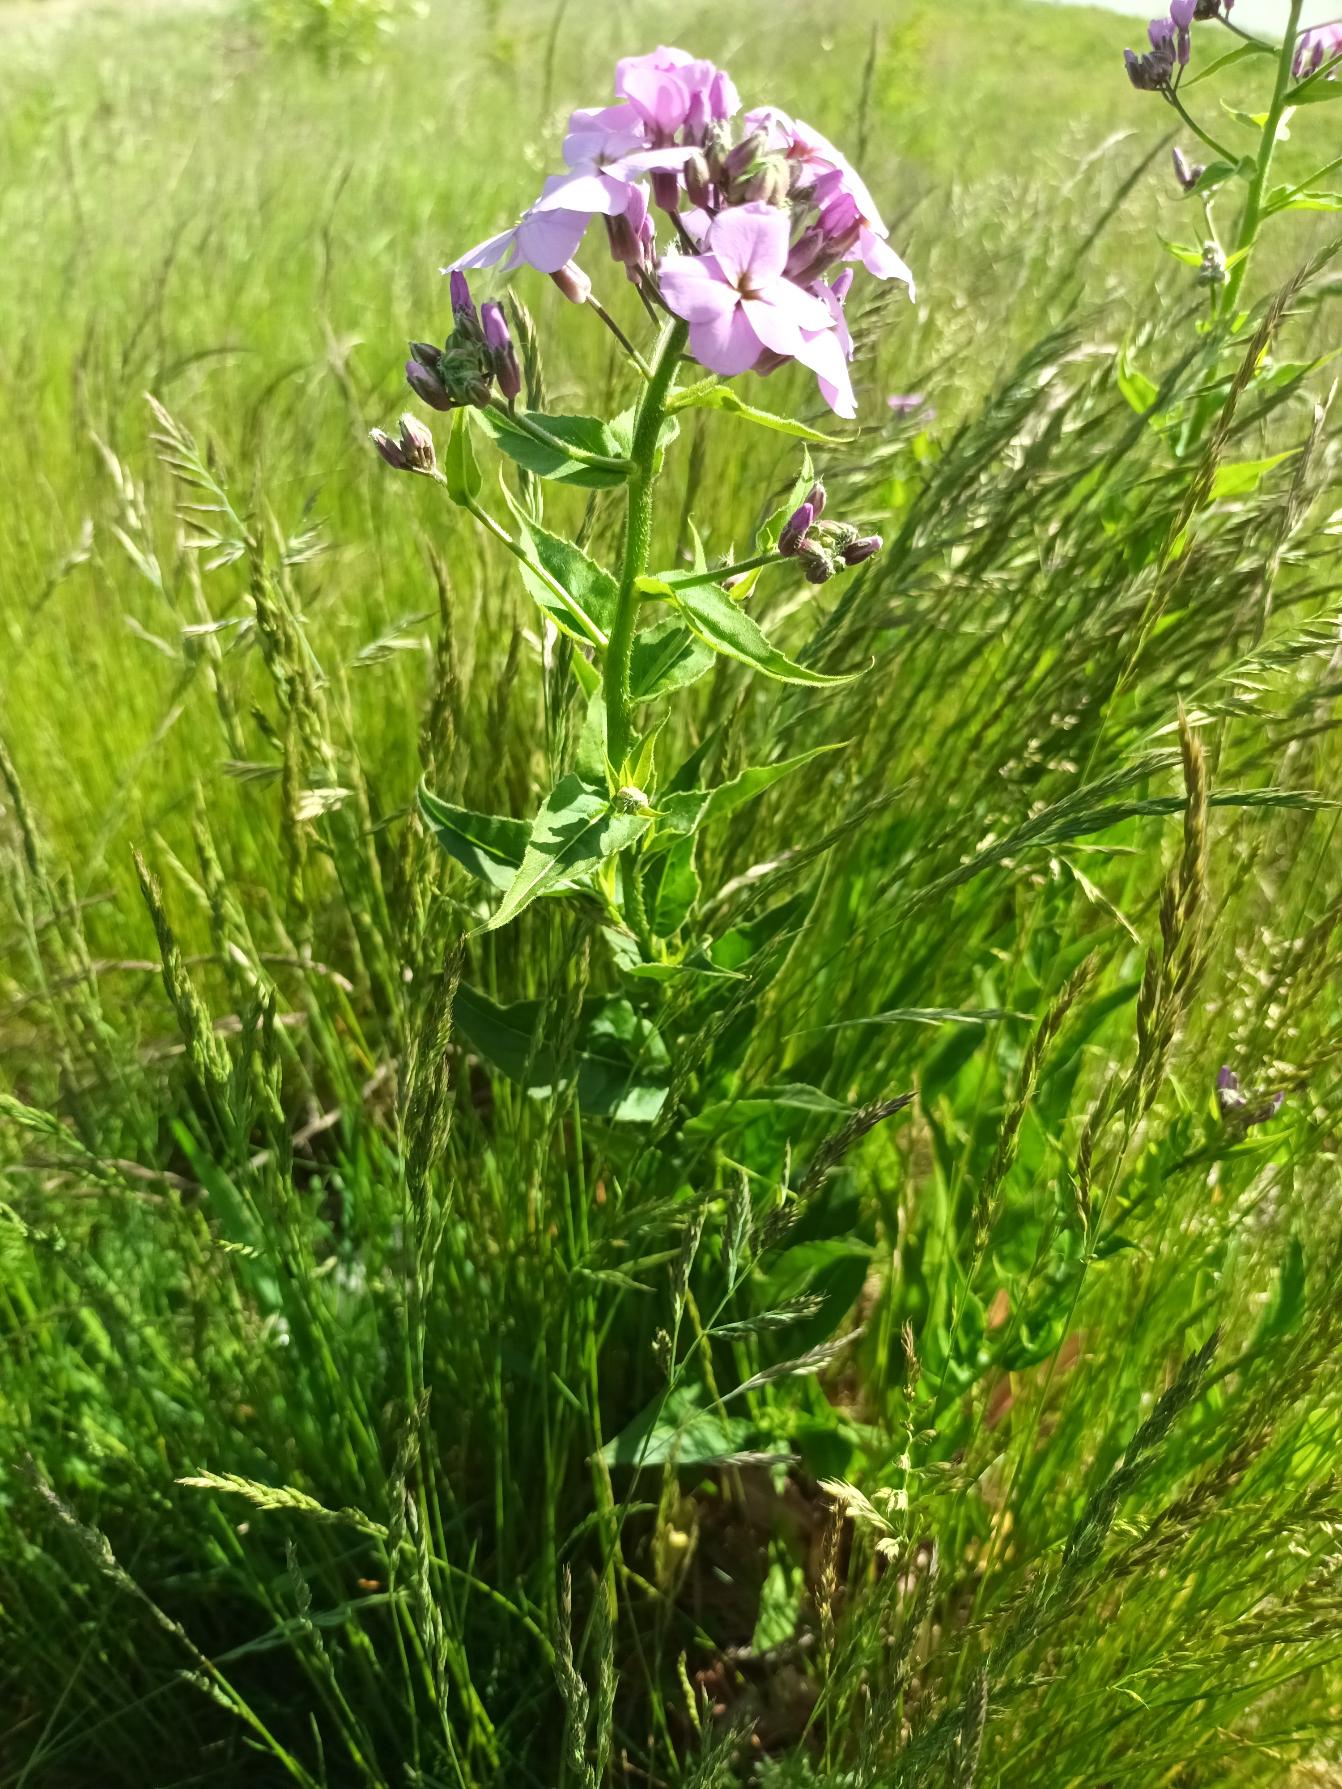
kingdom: Plantae
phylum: Tracheophyta
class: Magnoliopsida
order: Brassicales
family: Brassicaceae
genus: Hesperis
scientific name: Hesperis matronalis
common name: Aftenstjerne
